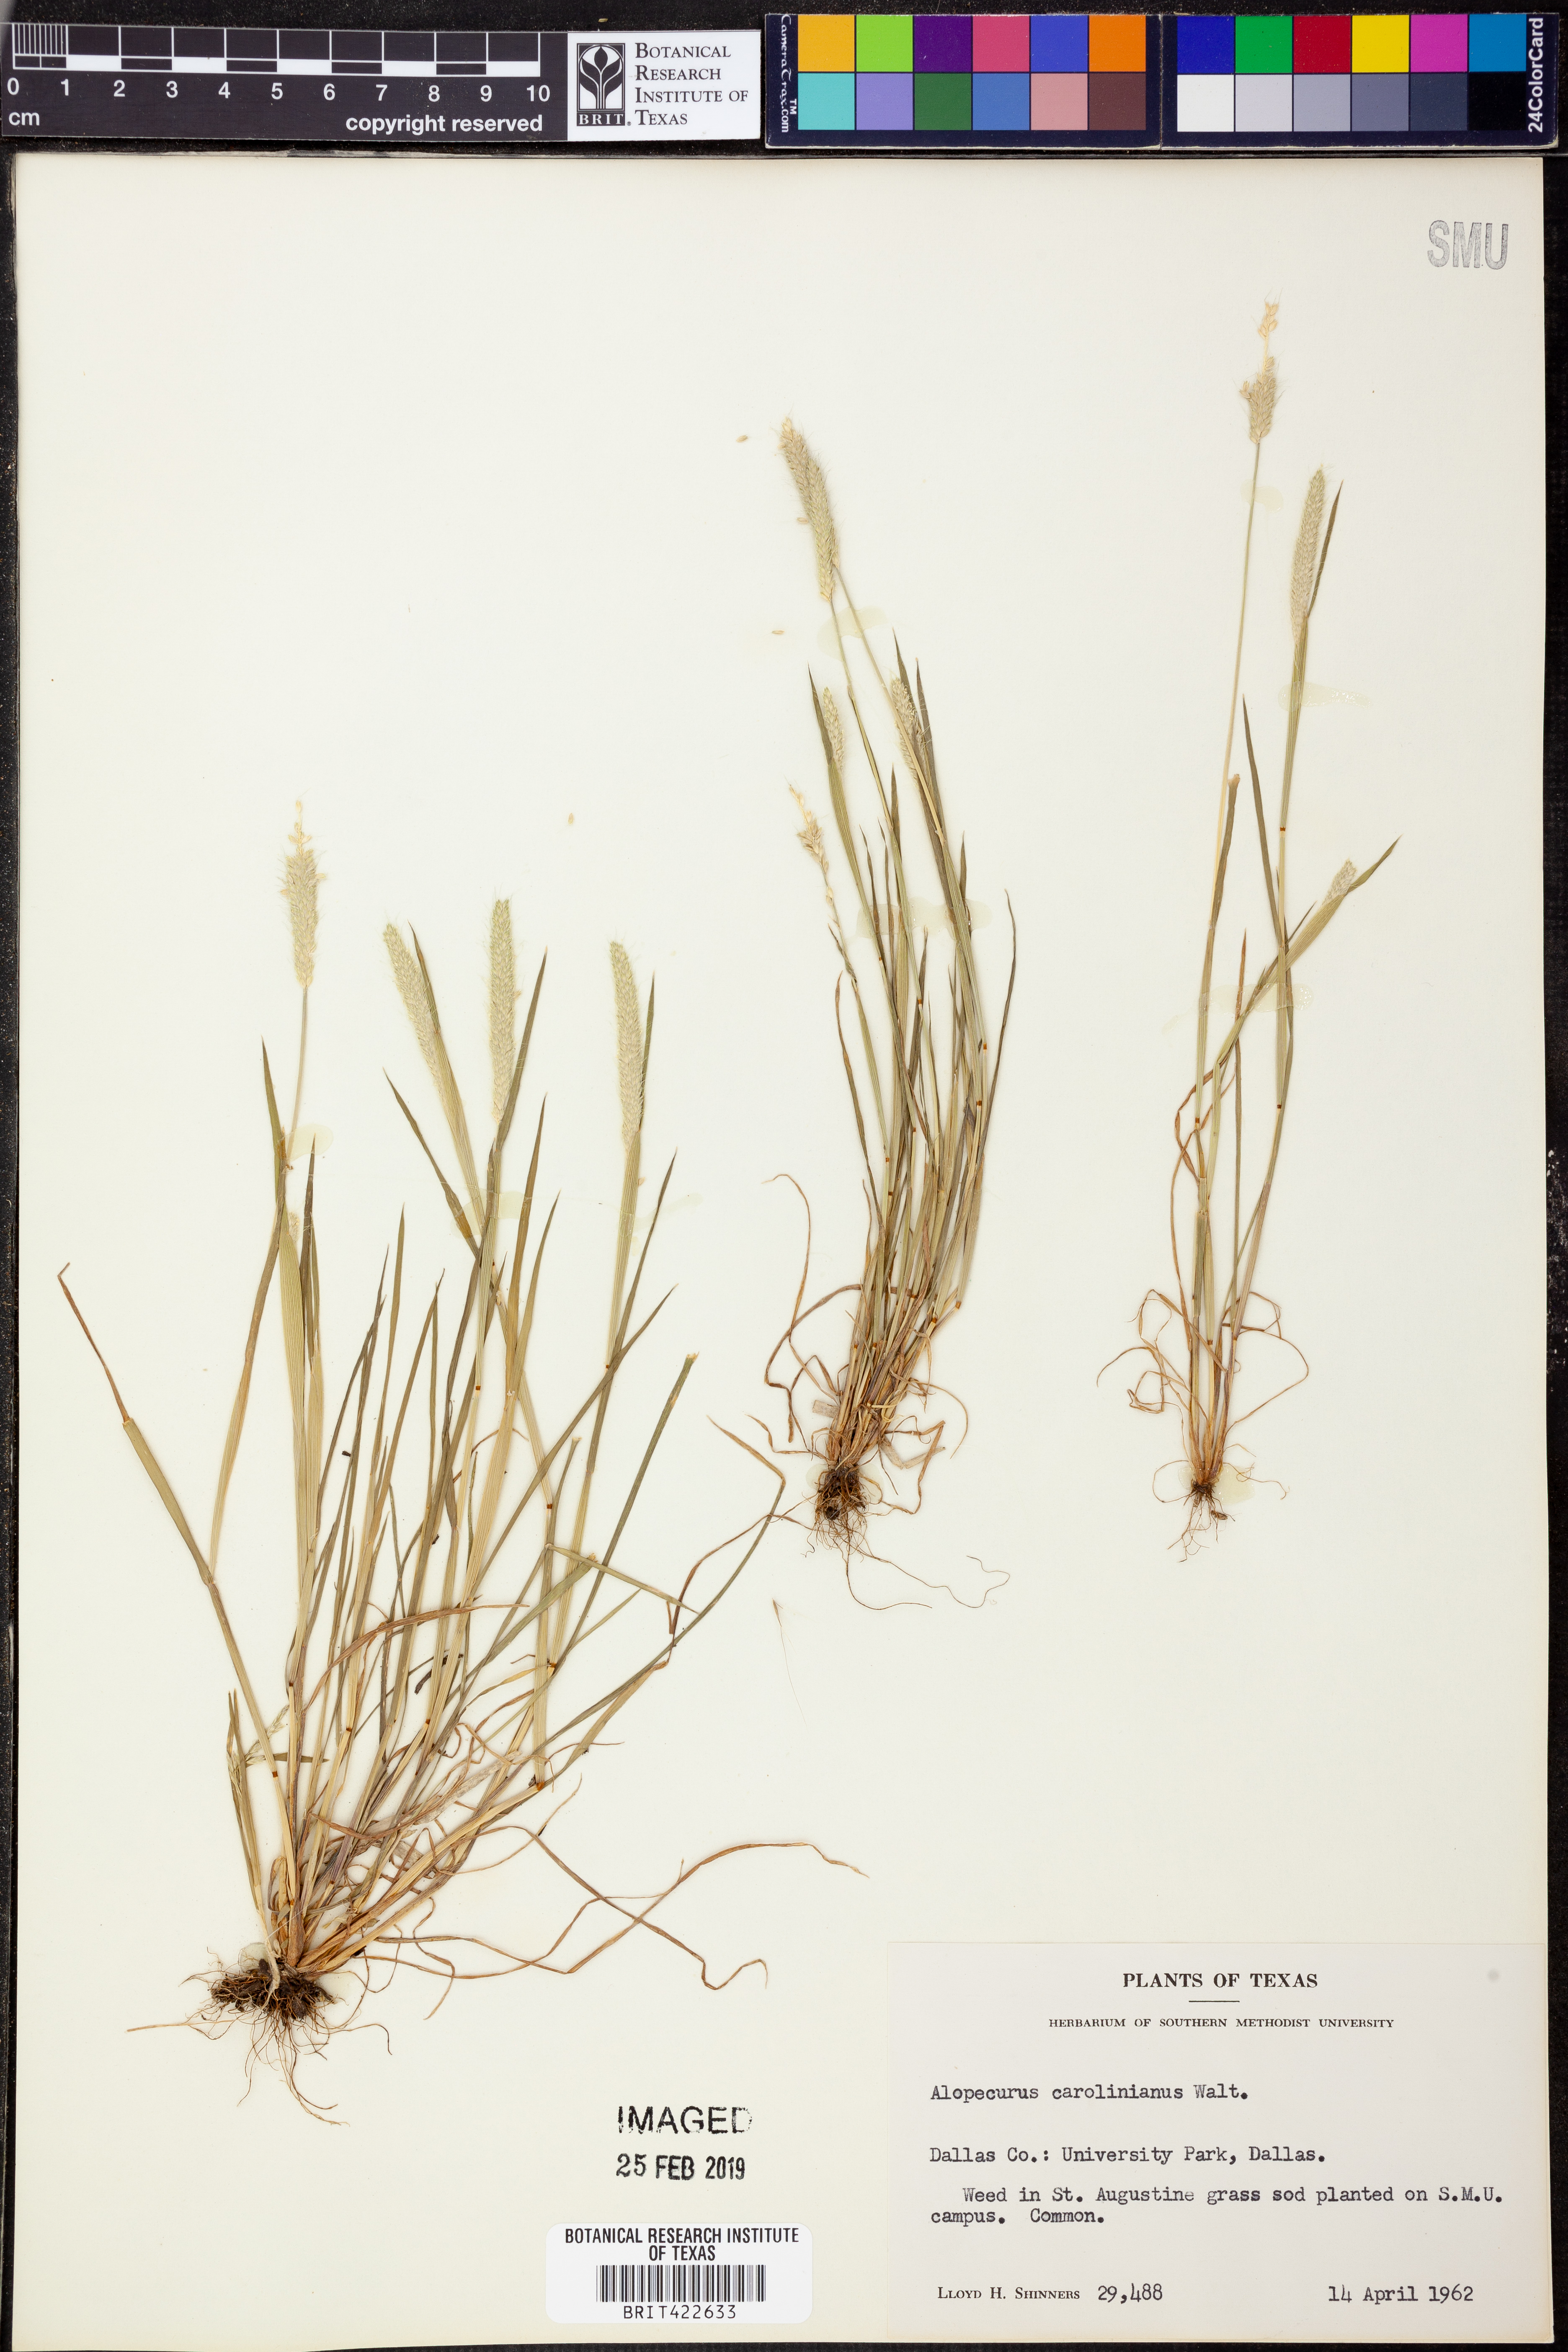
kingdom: Plantae
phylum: Tracheophyta
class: Liliopsida
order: Poales
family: Poaceae
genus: Alopecurus
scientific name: Alopecurus carolinianus
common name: Tufted foxtail
